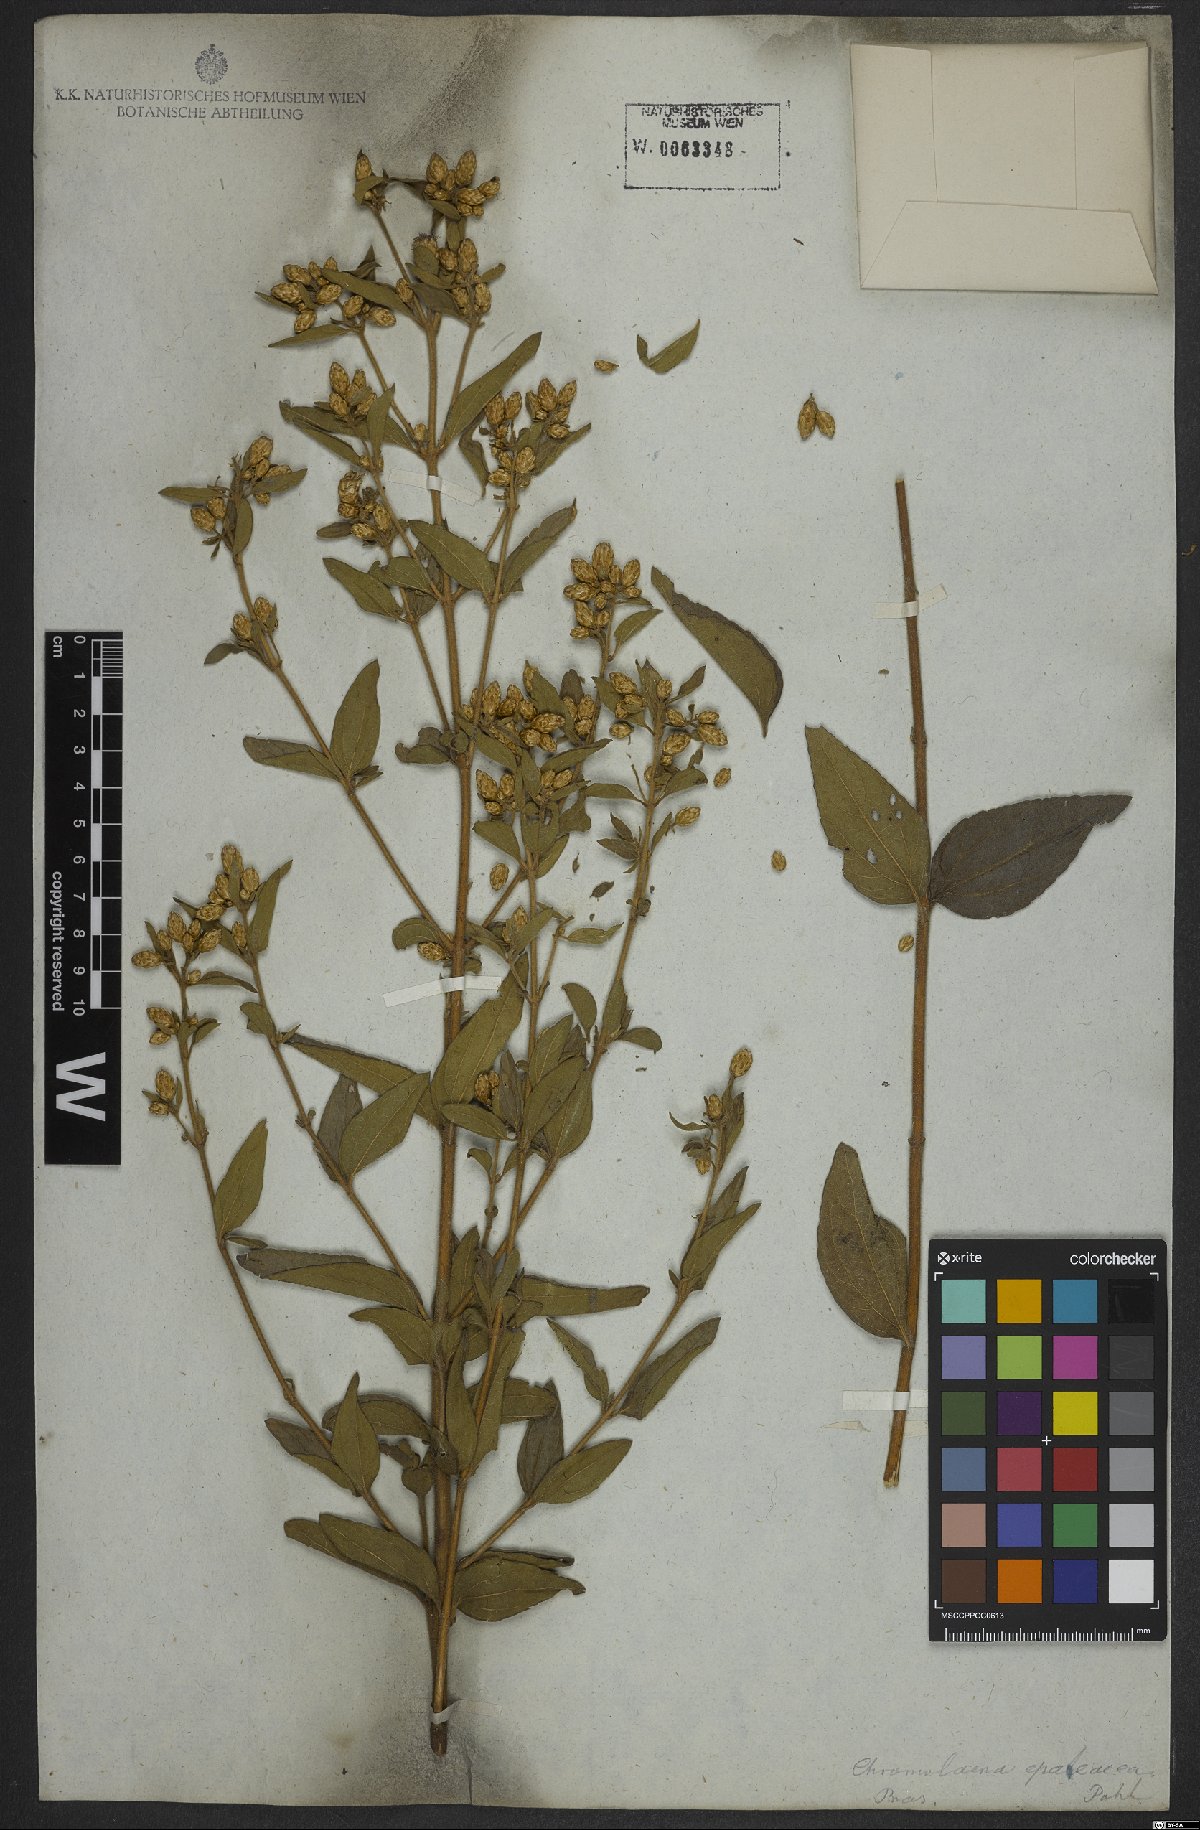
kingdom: Plantae
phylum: Tracheophyta
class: Magnoliopsida
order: Asterales
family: Asteraceae
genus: Chromolaena
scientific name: Chromolaena epaleacea
